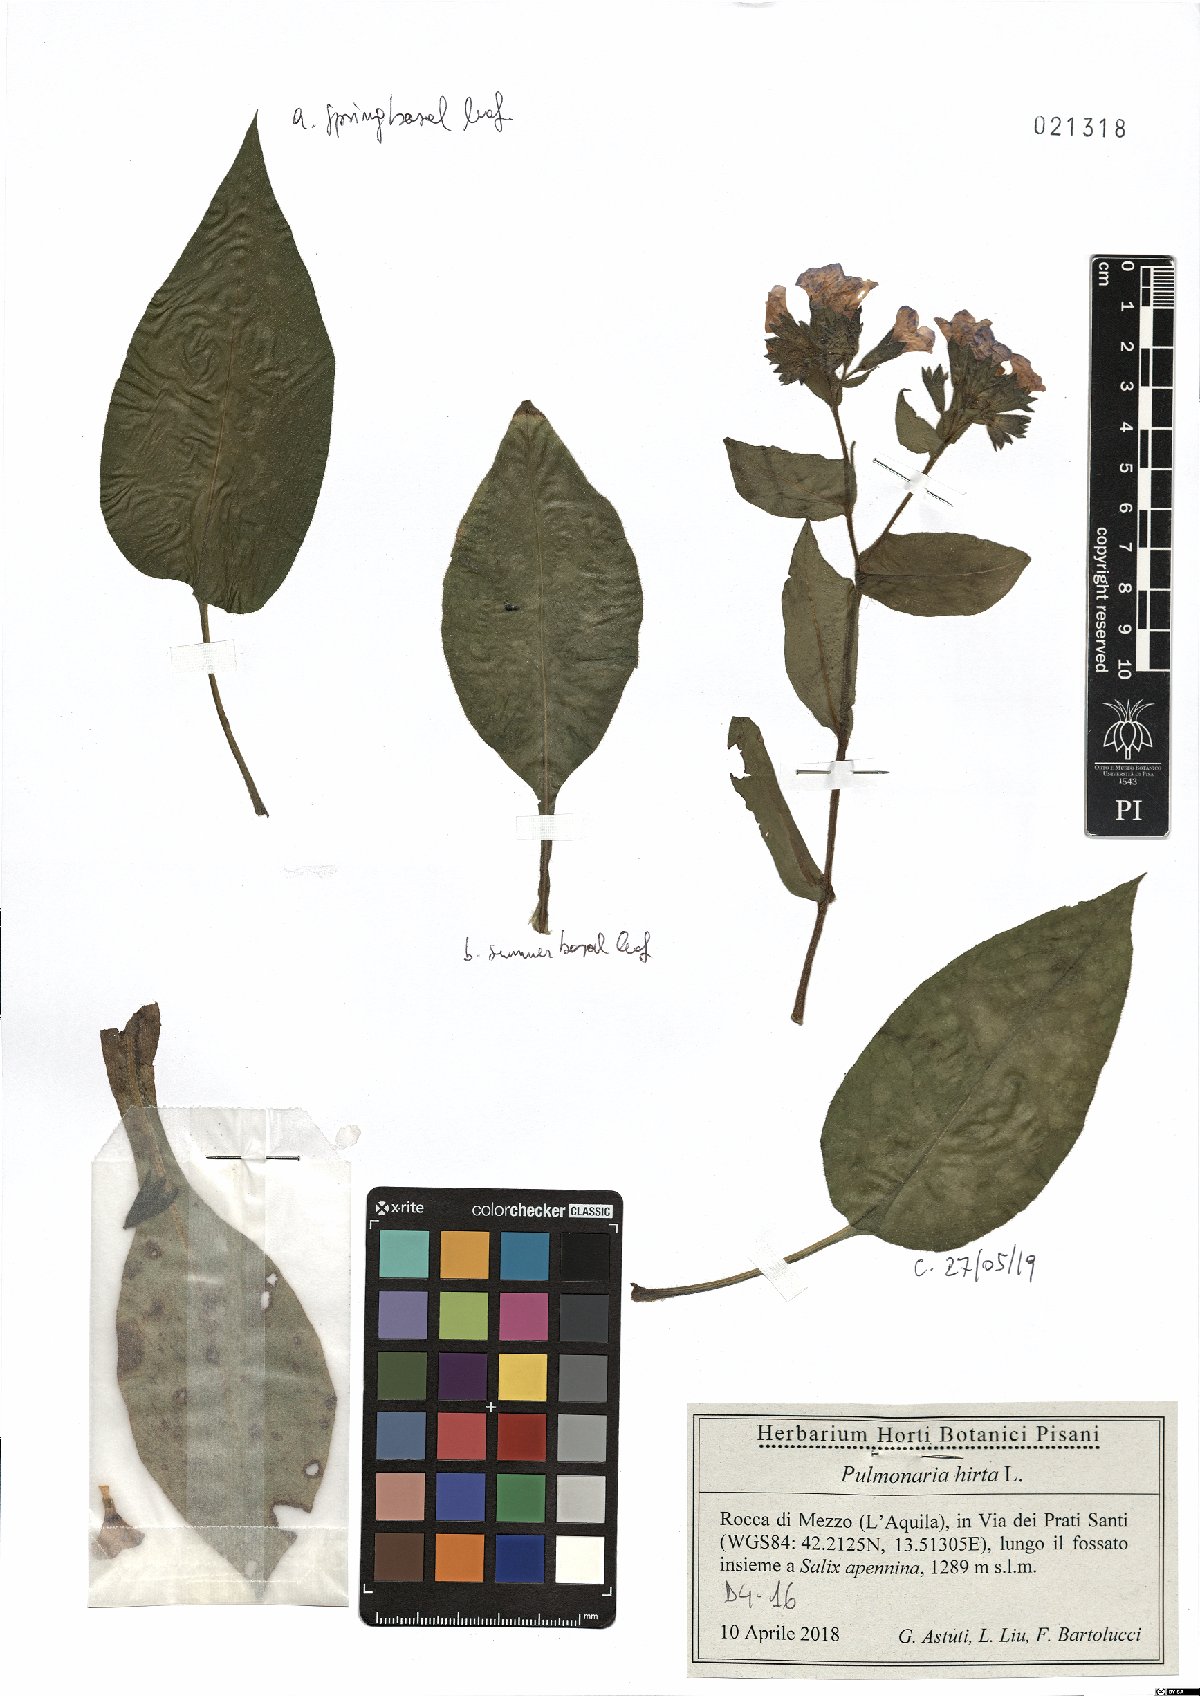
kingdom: Plantae
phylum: Tracheophyta
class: Magnoliopsida
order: Boraginales
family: Boraginaceae
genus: Pulmonaria
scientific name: Pulmonaria hirta
